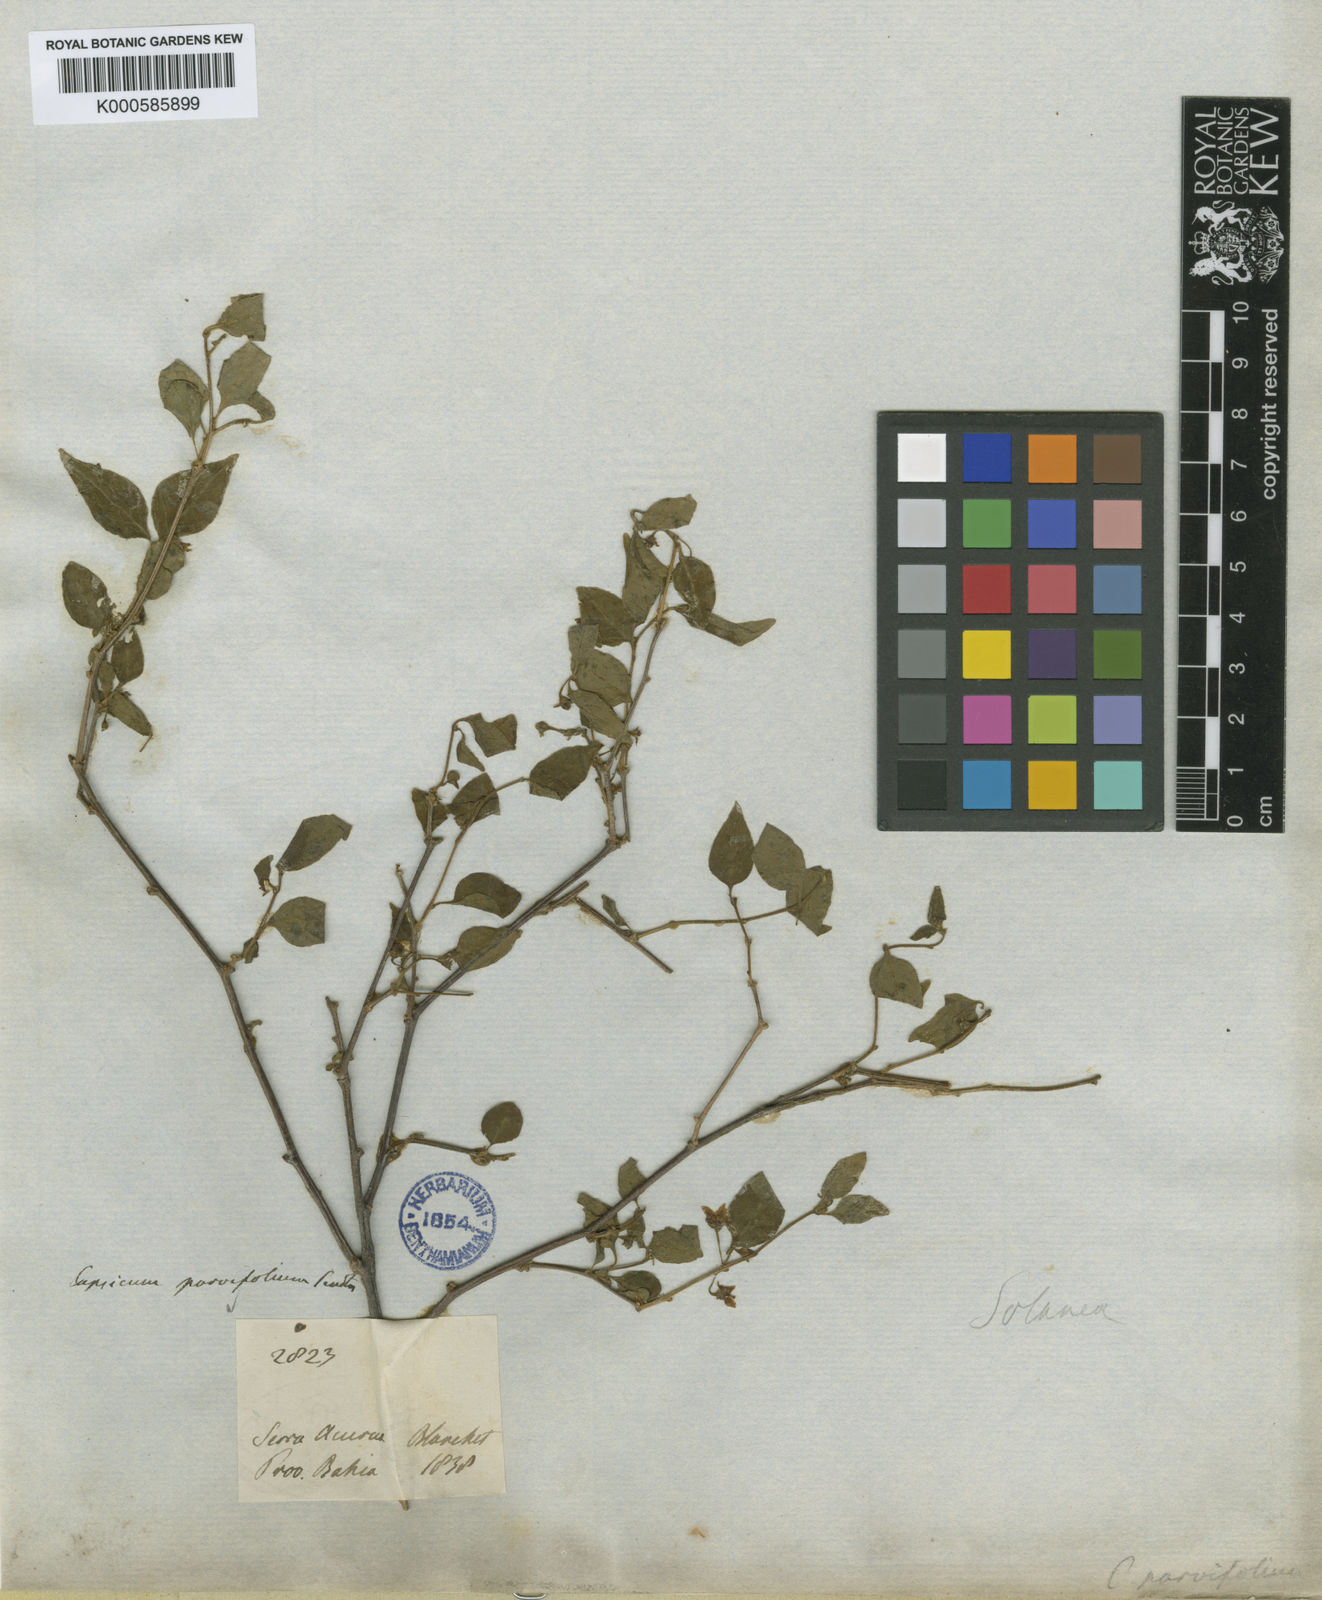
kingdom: Plantae
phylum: Tracheophyta
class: Magnoliopsida
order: Solanales
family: Solanaceae
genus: Capsicum
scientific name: Capsicum parvifolium
